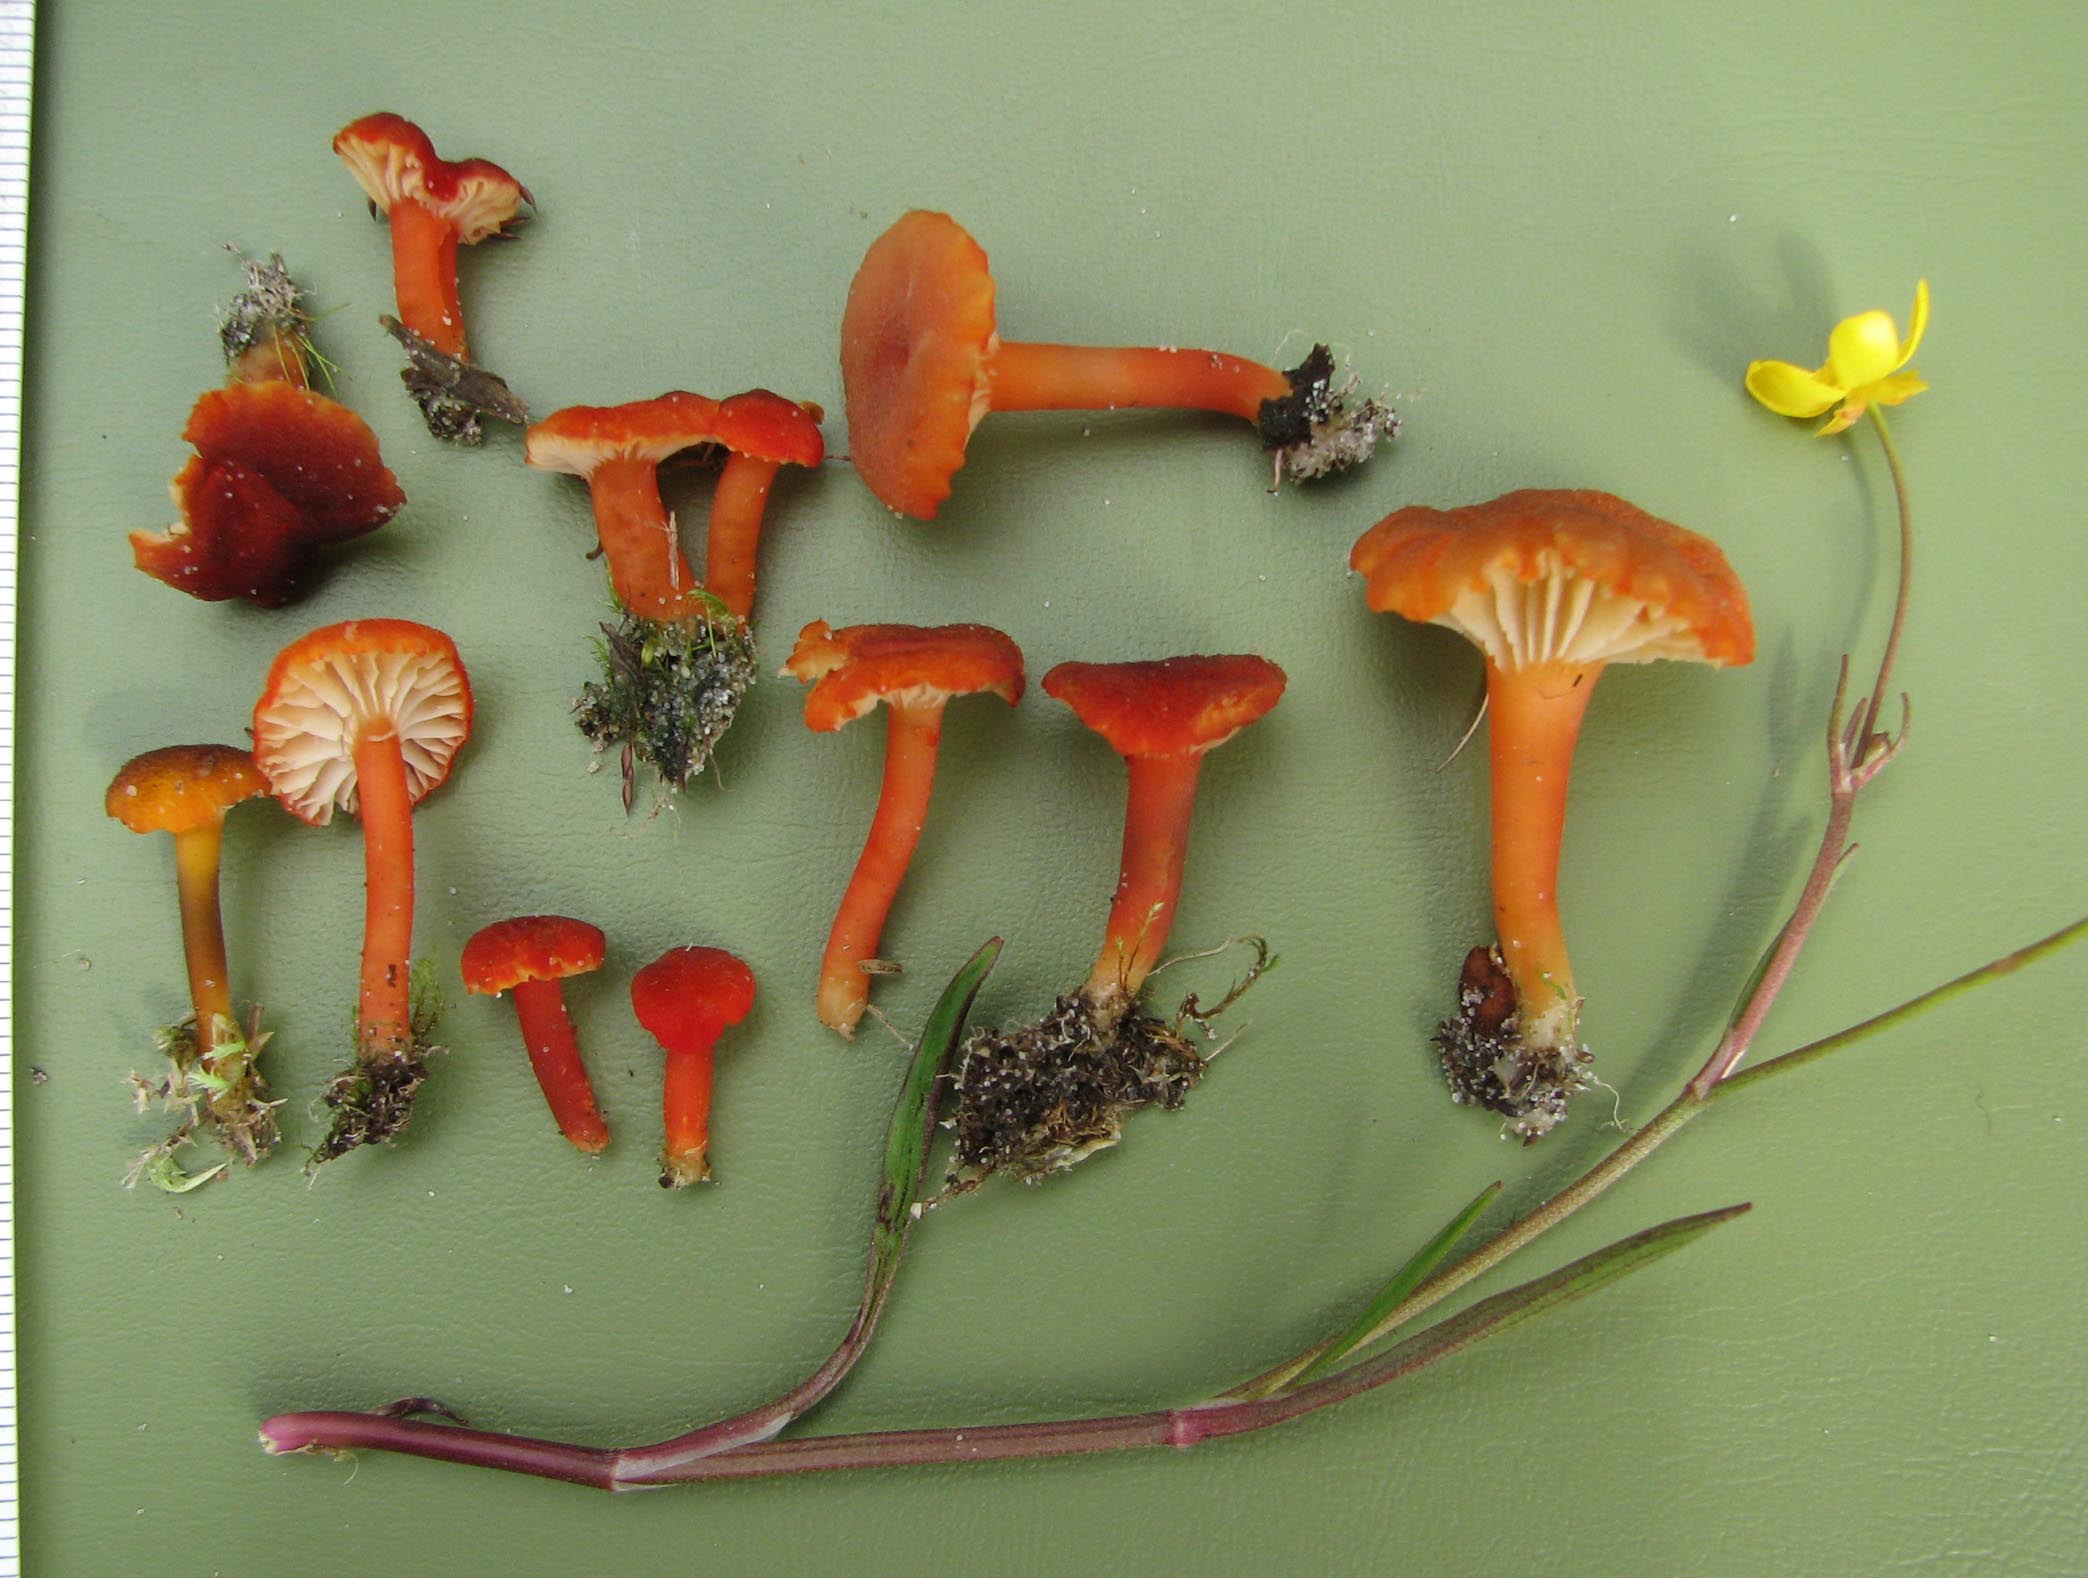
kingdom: Fungi
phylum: Basidiomycota
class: Agaricomycetes
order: Agaricales
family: Hygrophoraceae
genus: Hygrocybe
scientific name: Hygrocybe coccineocrenata
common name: tørvemos-vokshat
